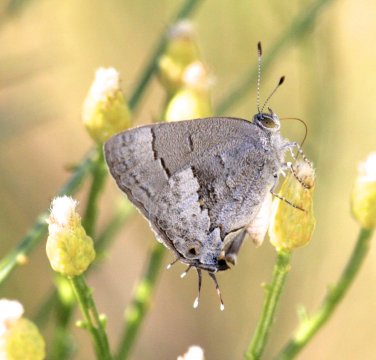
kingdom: Animalia
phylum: Arthropoda
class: Insecta
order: Lepidoptera
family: Lycaenidae
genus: Ministrymon
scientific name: Ministrymon leda
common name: Leda Ministreak
